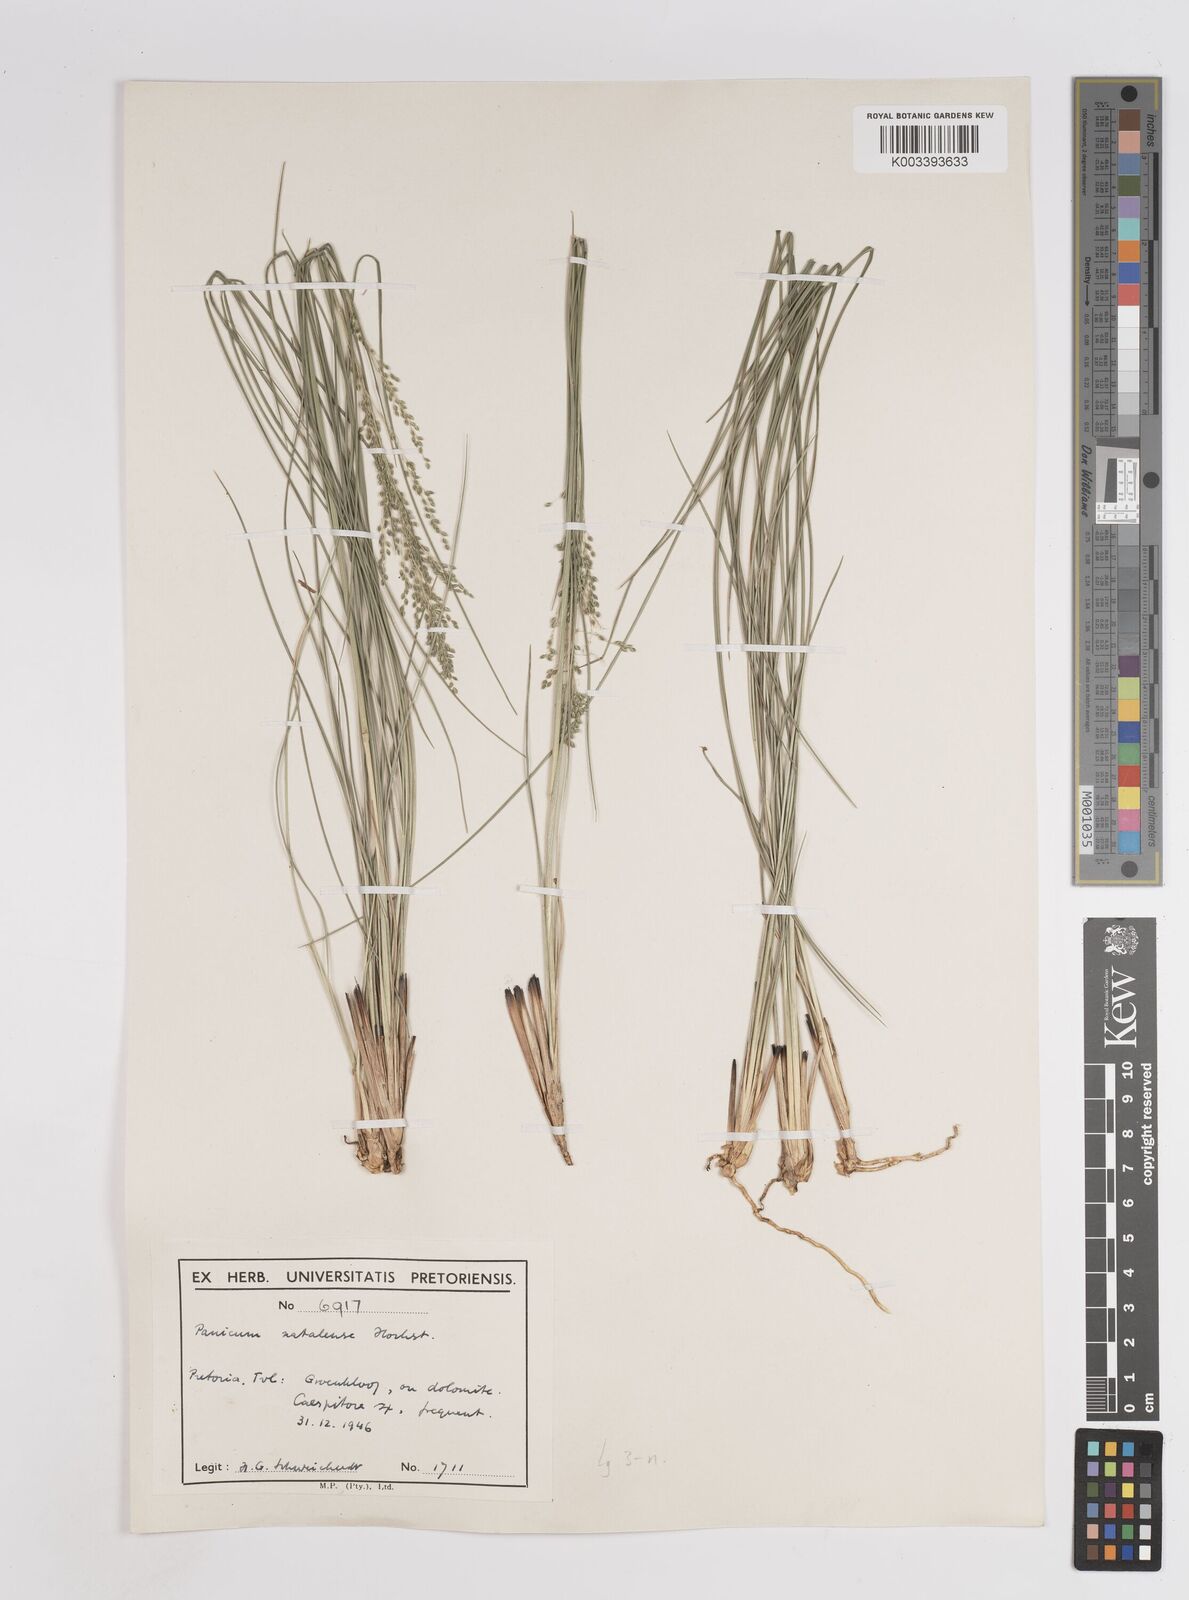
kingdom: Plantae
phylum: Tracheophyta
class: Liliopsida
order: Poales
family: Poaceae
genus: Trichanthecium
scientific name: Trichanthecium natalense
